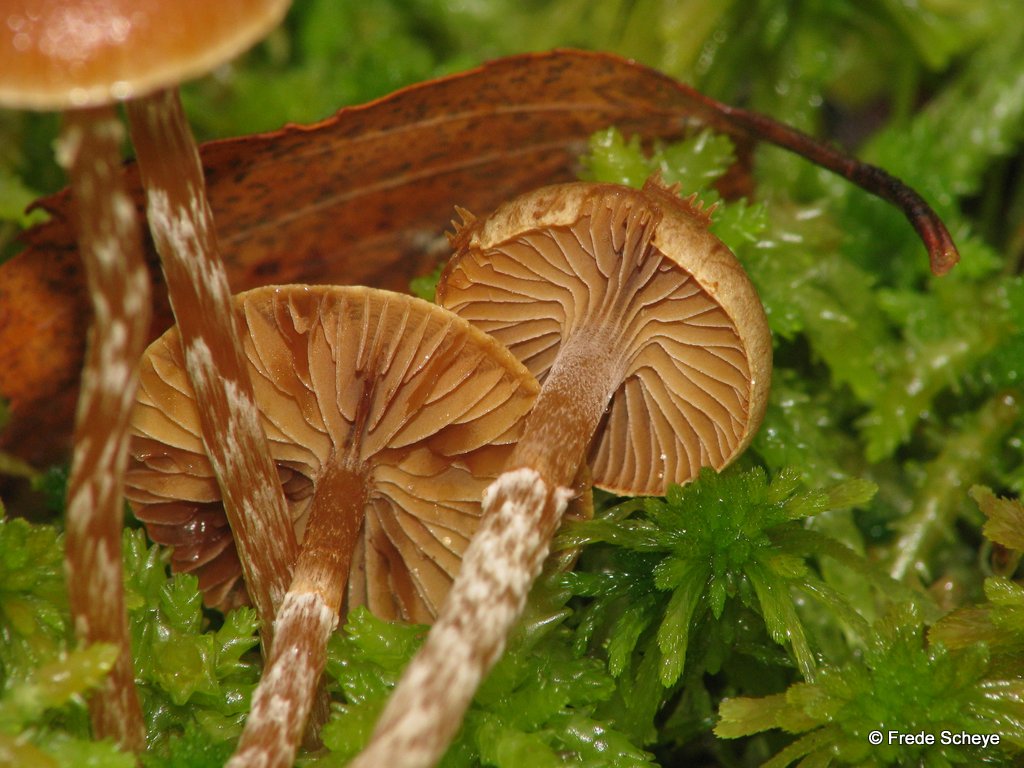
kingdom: Fungi
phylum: Basidiomycota
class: Agaricomycetes
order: Agaricales
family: Hymenogastraceae
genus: Galerina
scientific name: Galerina paludosa
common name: mose-hjelmhat
